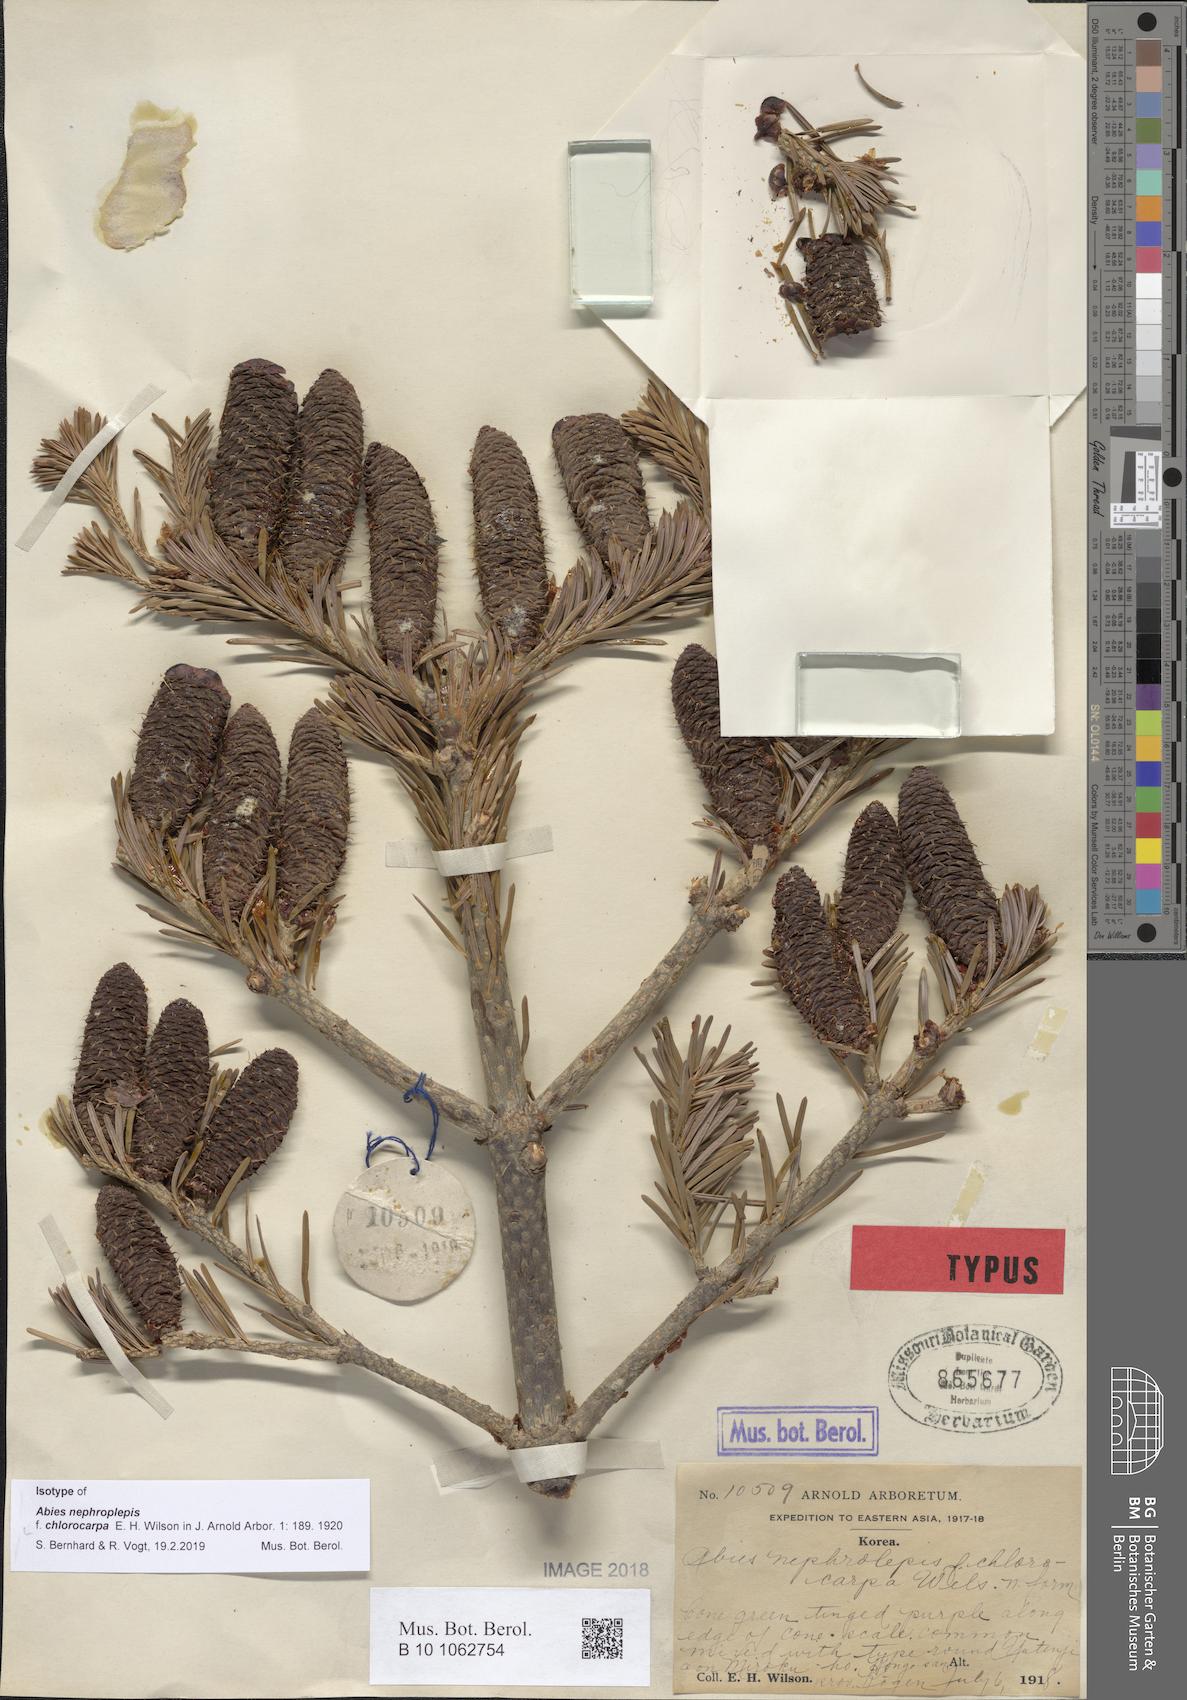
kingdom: Plantae
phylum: Tracheophyta
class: Pinopsida
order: Pinales
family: Pinaceae
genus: Abies
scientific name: Abies nephrolepis
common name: Hinggan fir
